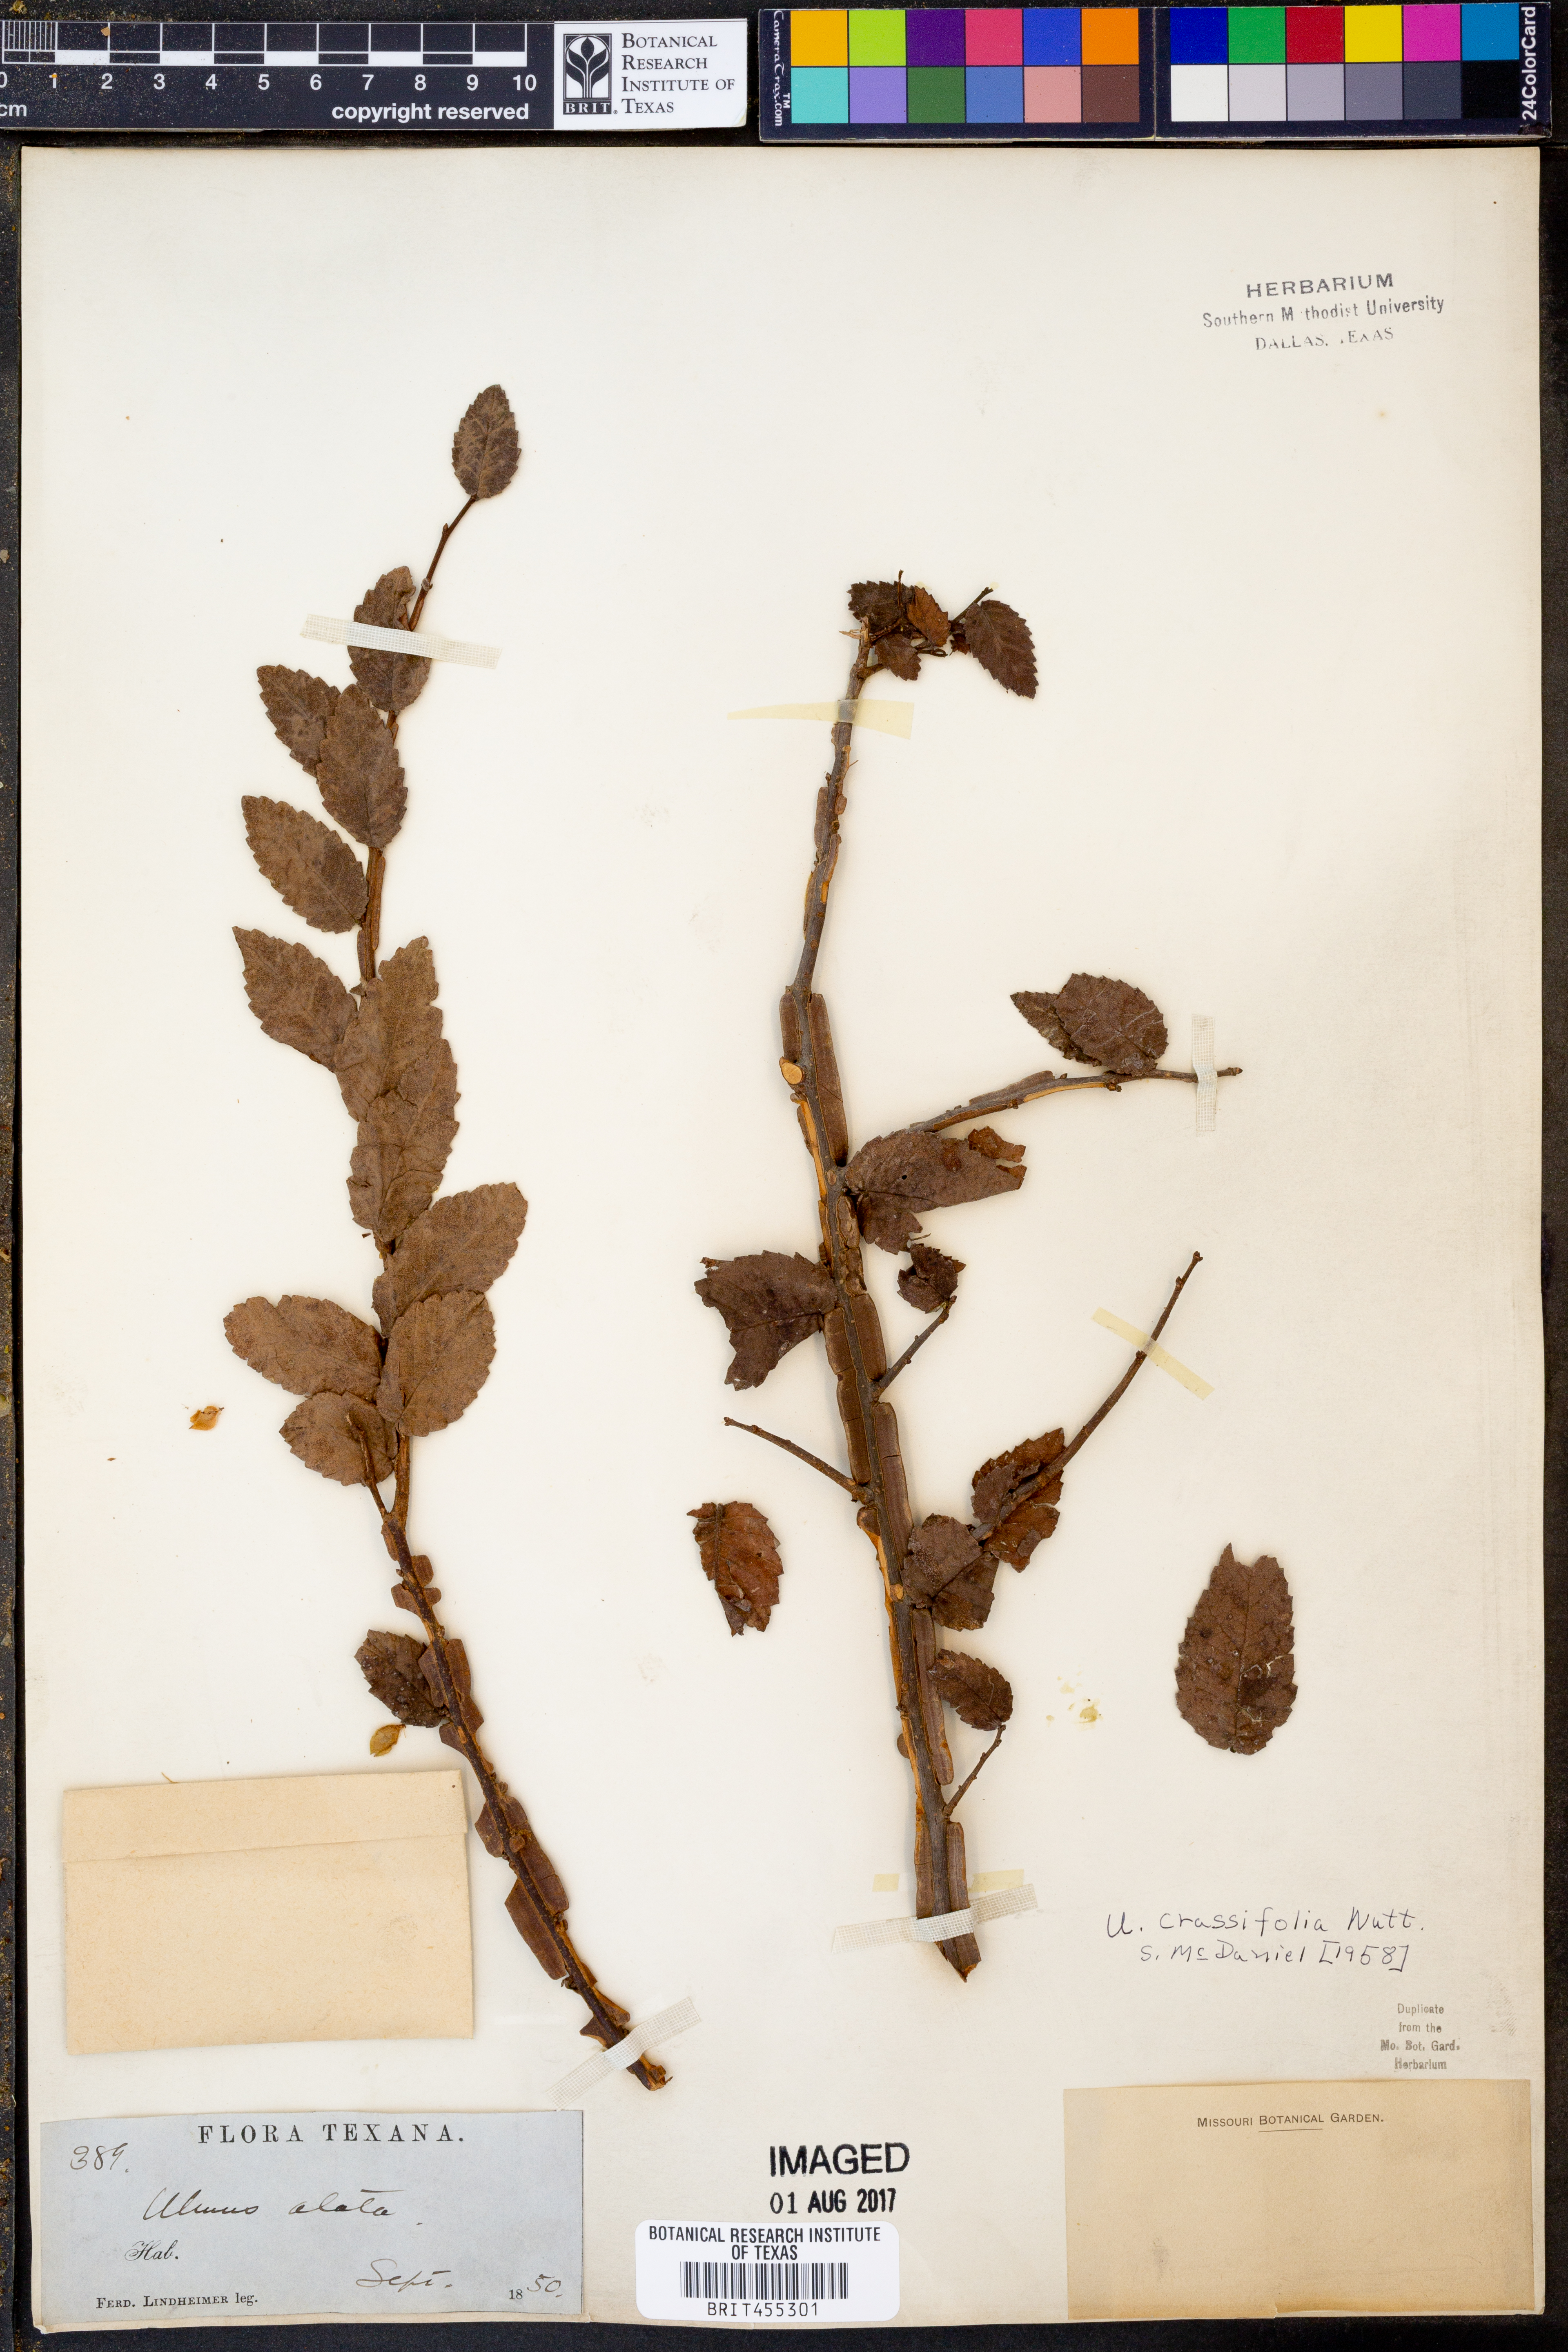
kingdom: Plantae
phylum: Tracheophyta
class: Magnoliopsida
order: Rosales
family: Ulmaceae
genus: Ulmus
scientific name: Ulmus crassifolia
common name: Basket elm
